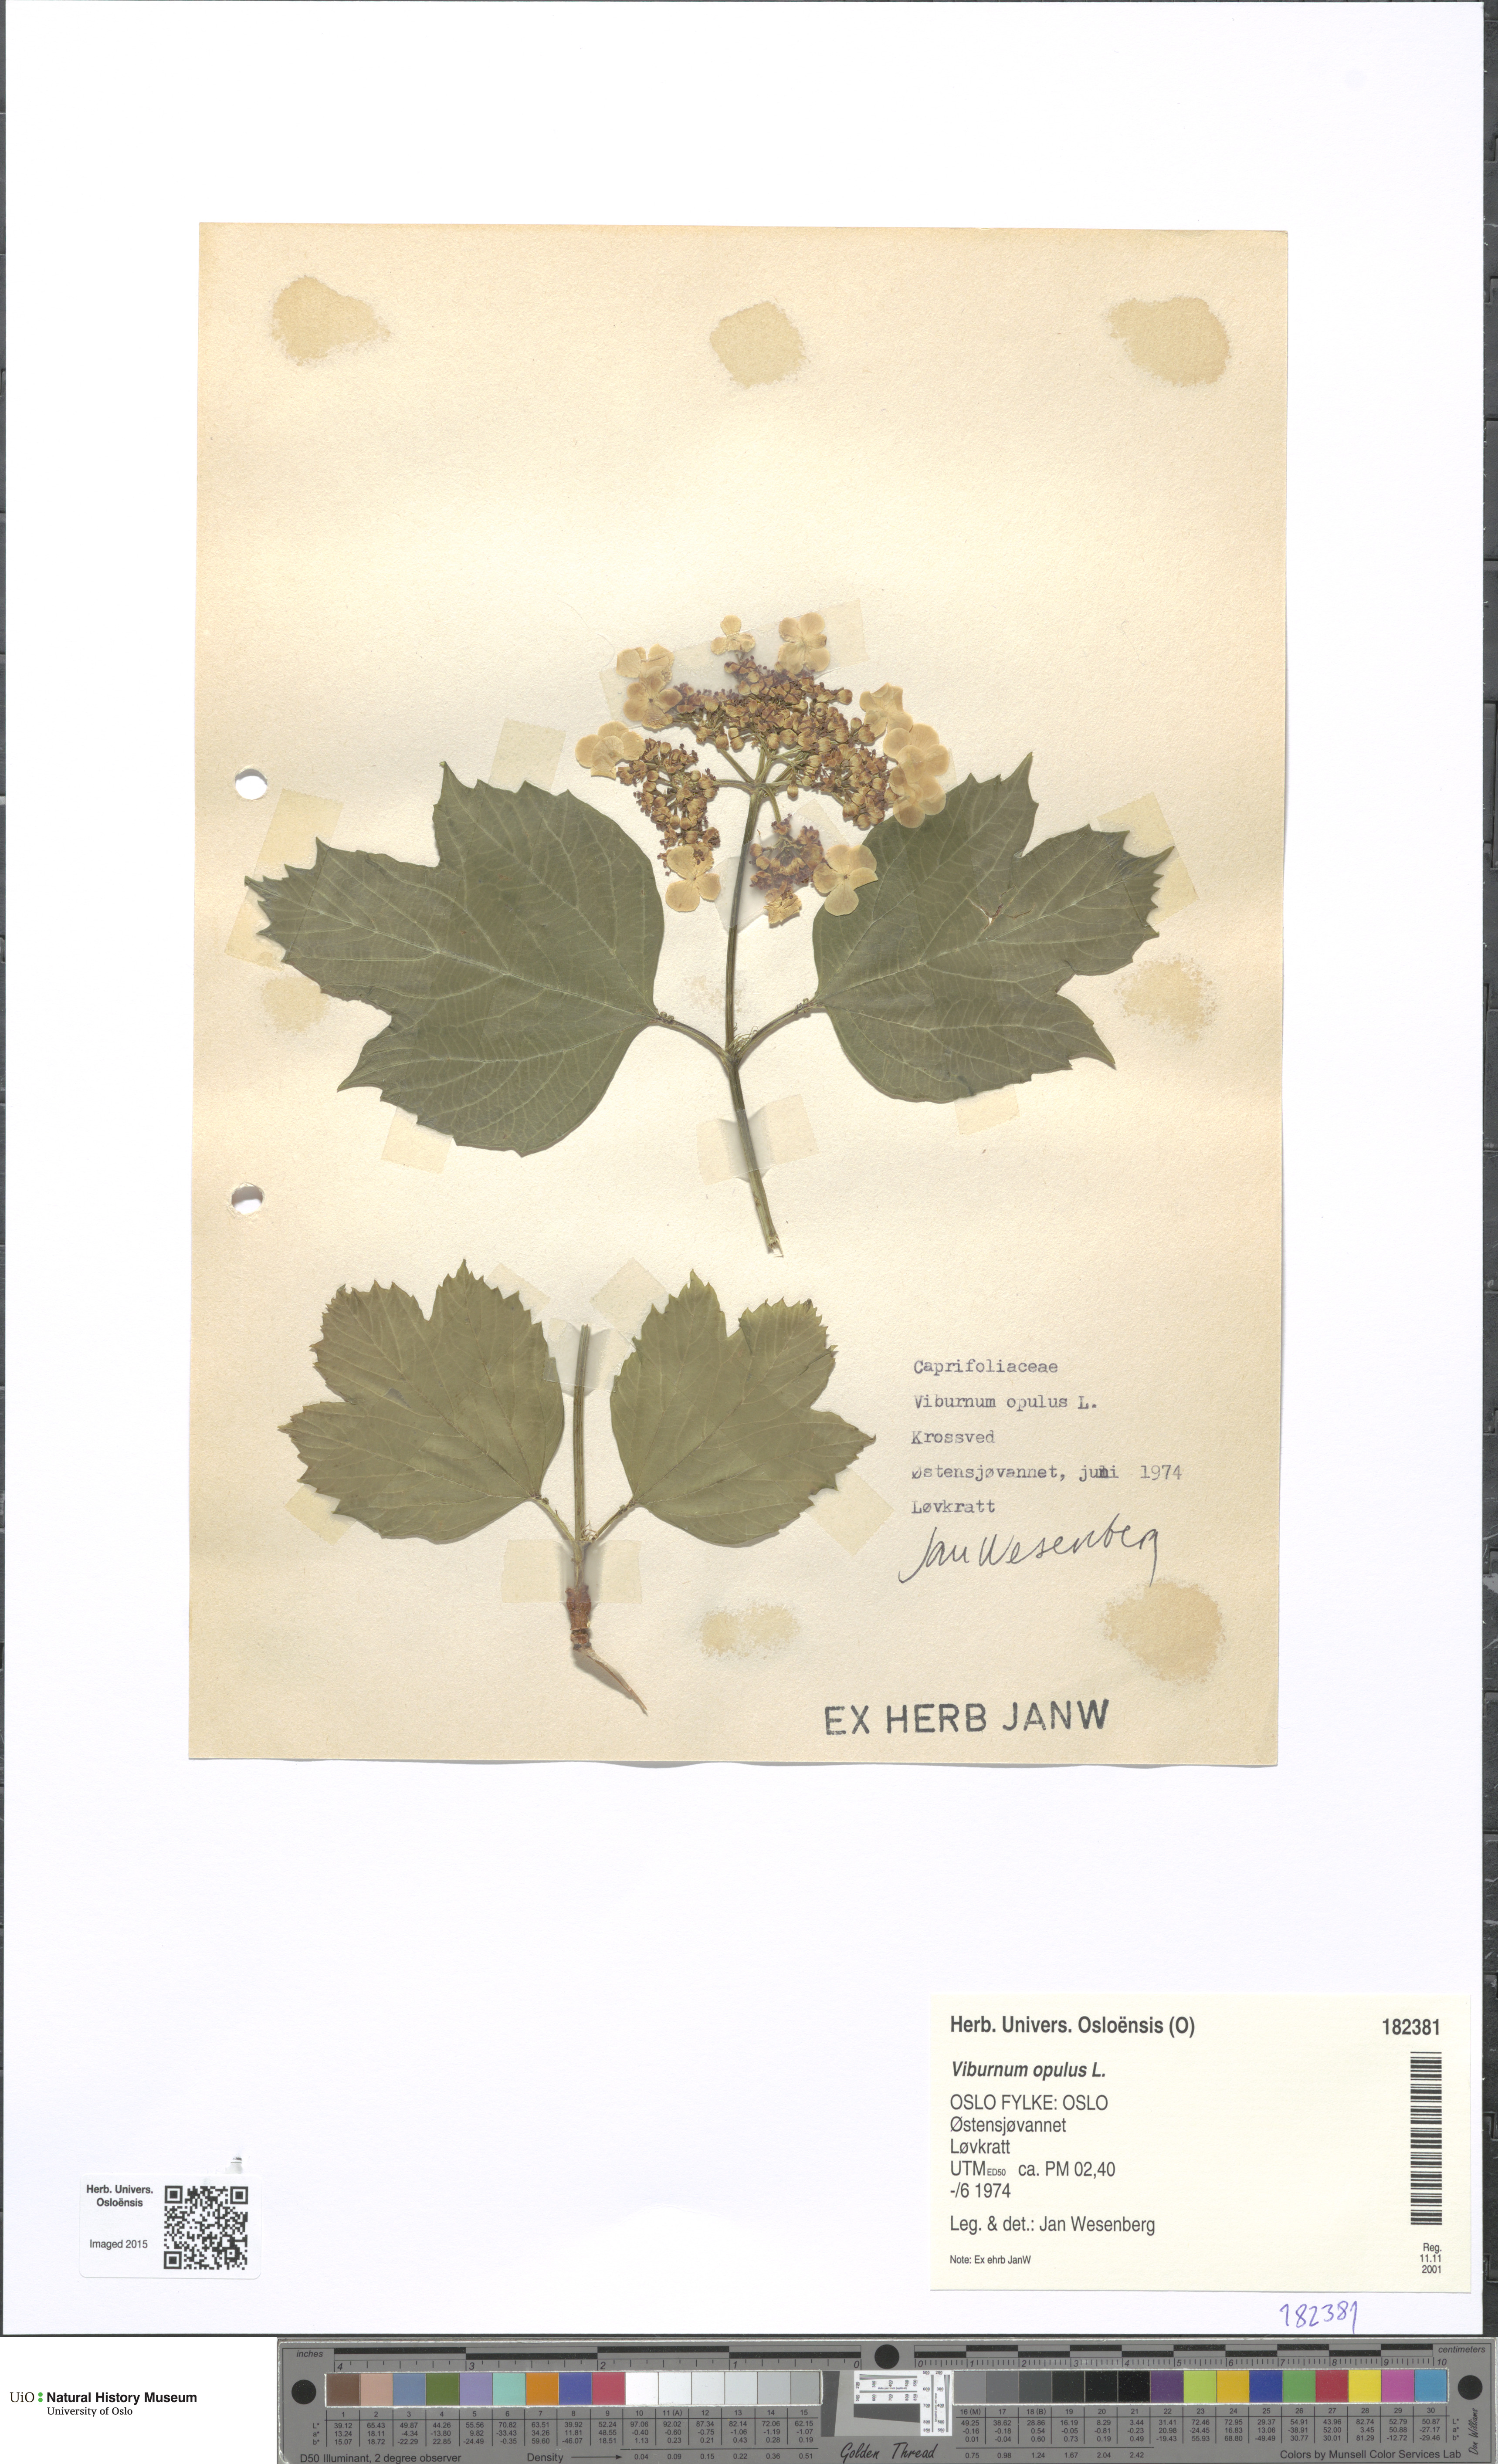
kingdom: Plantae
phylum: Tracheophyta
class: Magnoliopsida
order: Dipsacales
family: Viburnaceae
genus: Viburnum
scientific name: Viburnum opulus
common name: Guelder-rose
